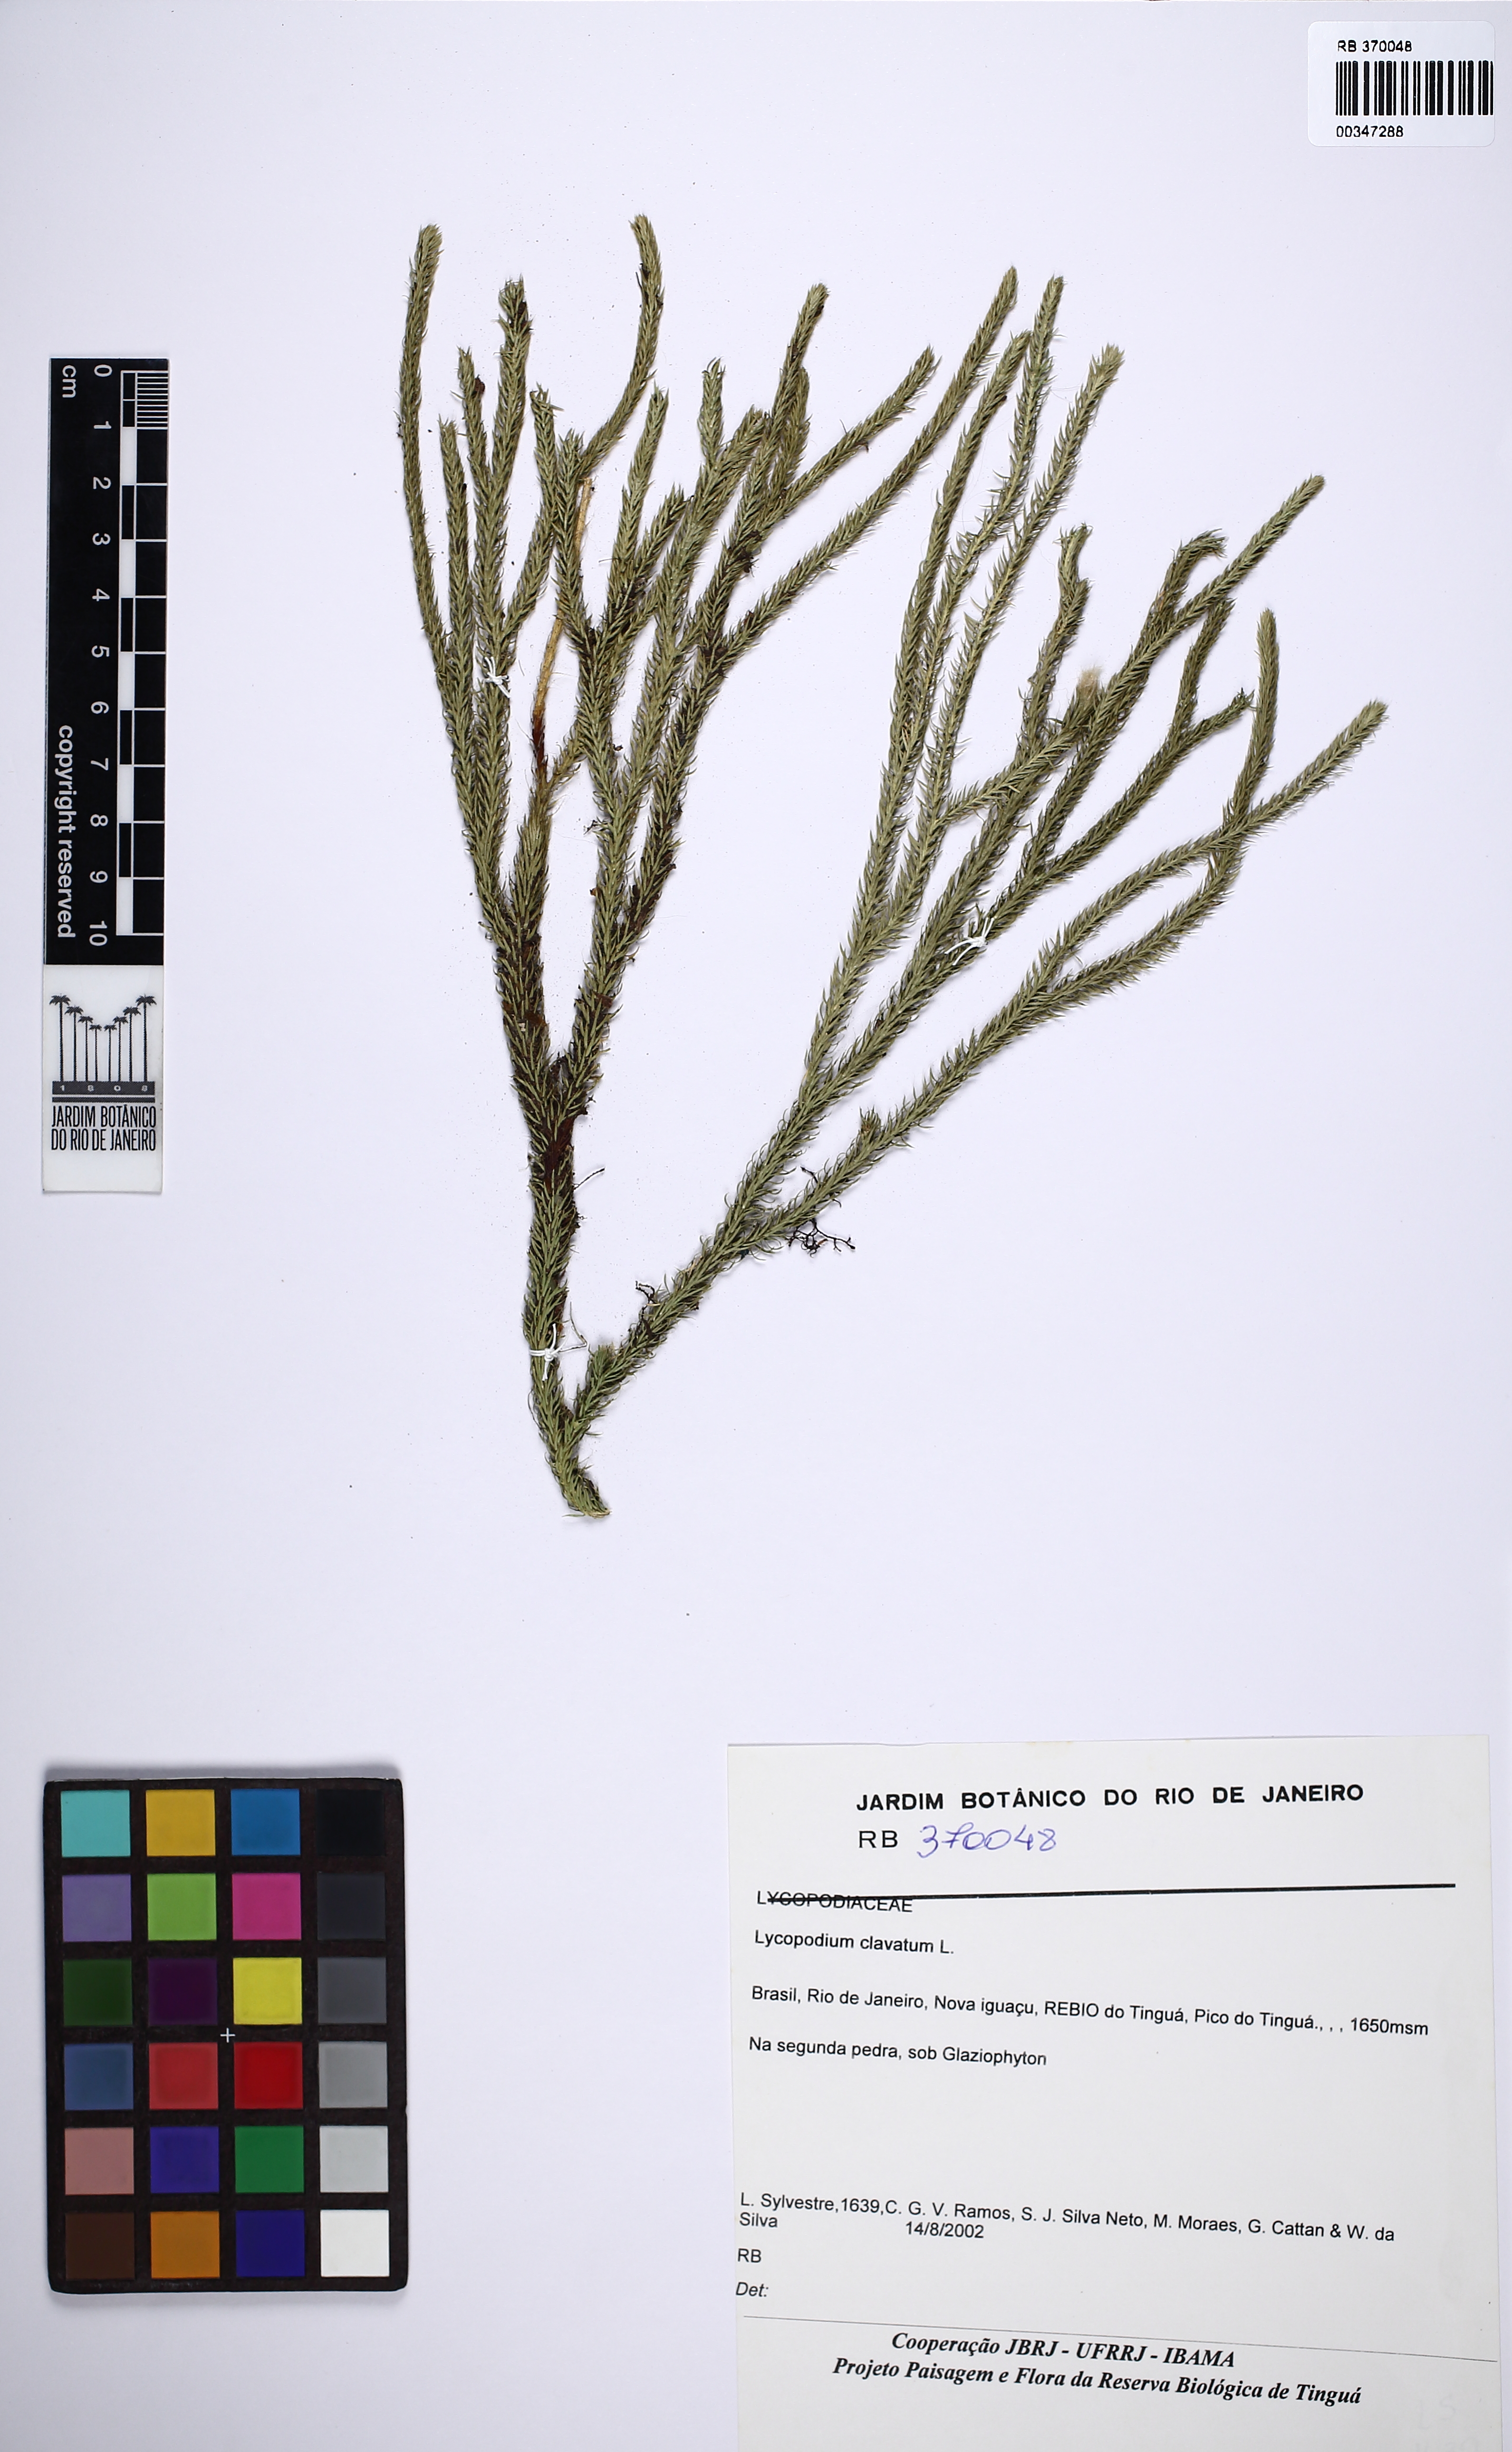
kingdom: Plantae
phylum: Tracheophyta
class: Lycopodiopsida
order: Lycopodiales
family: Lycopodiaceae
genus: Lycopodium
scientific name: Lycopodium clavatum
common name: Stag's-horn clubmoss
